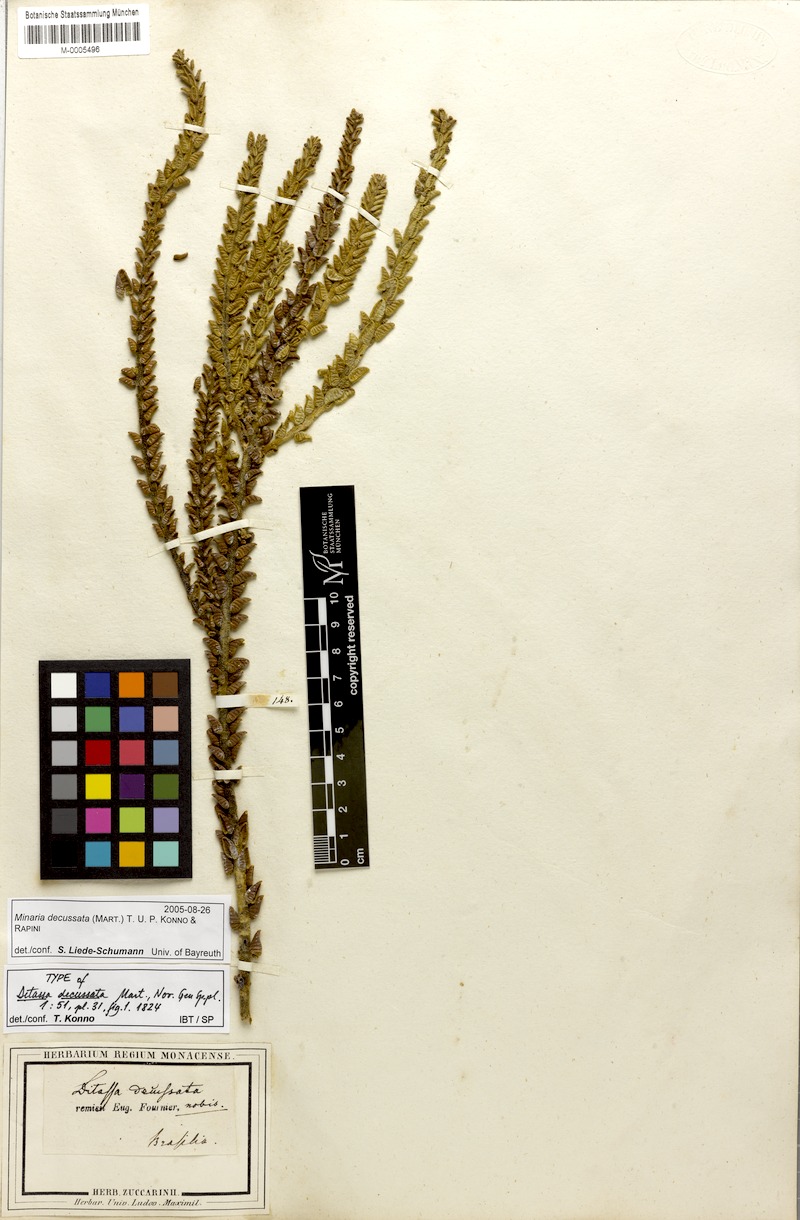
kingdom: Plantae
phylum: Tracheophyta
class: Magnoliopsida
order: Gentianales
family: Apocynaceae
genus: Minaria
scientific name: Minaria decussata
